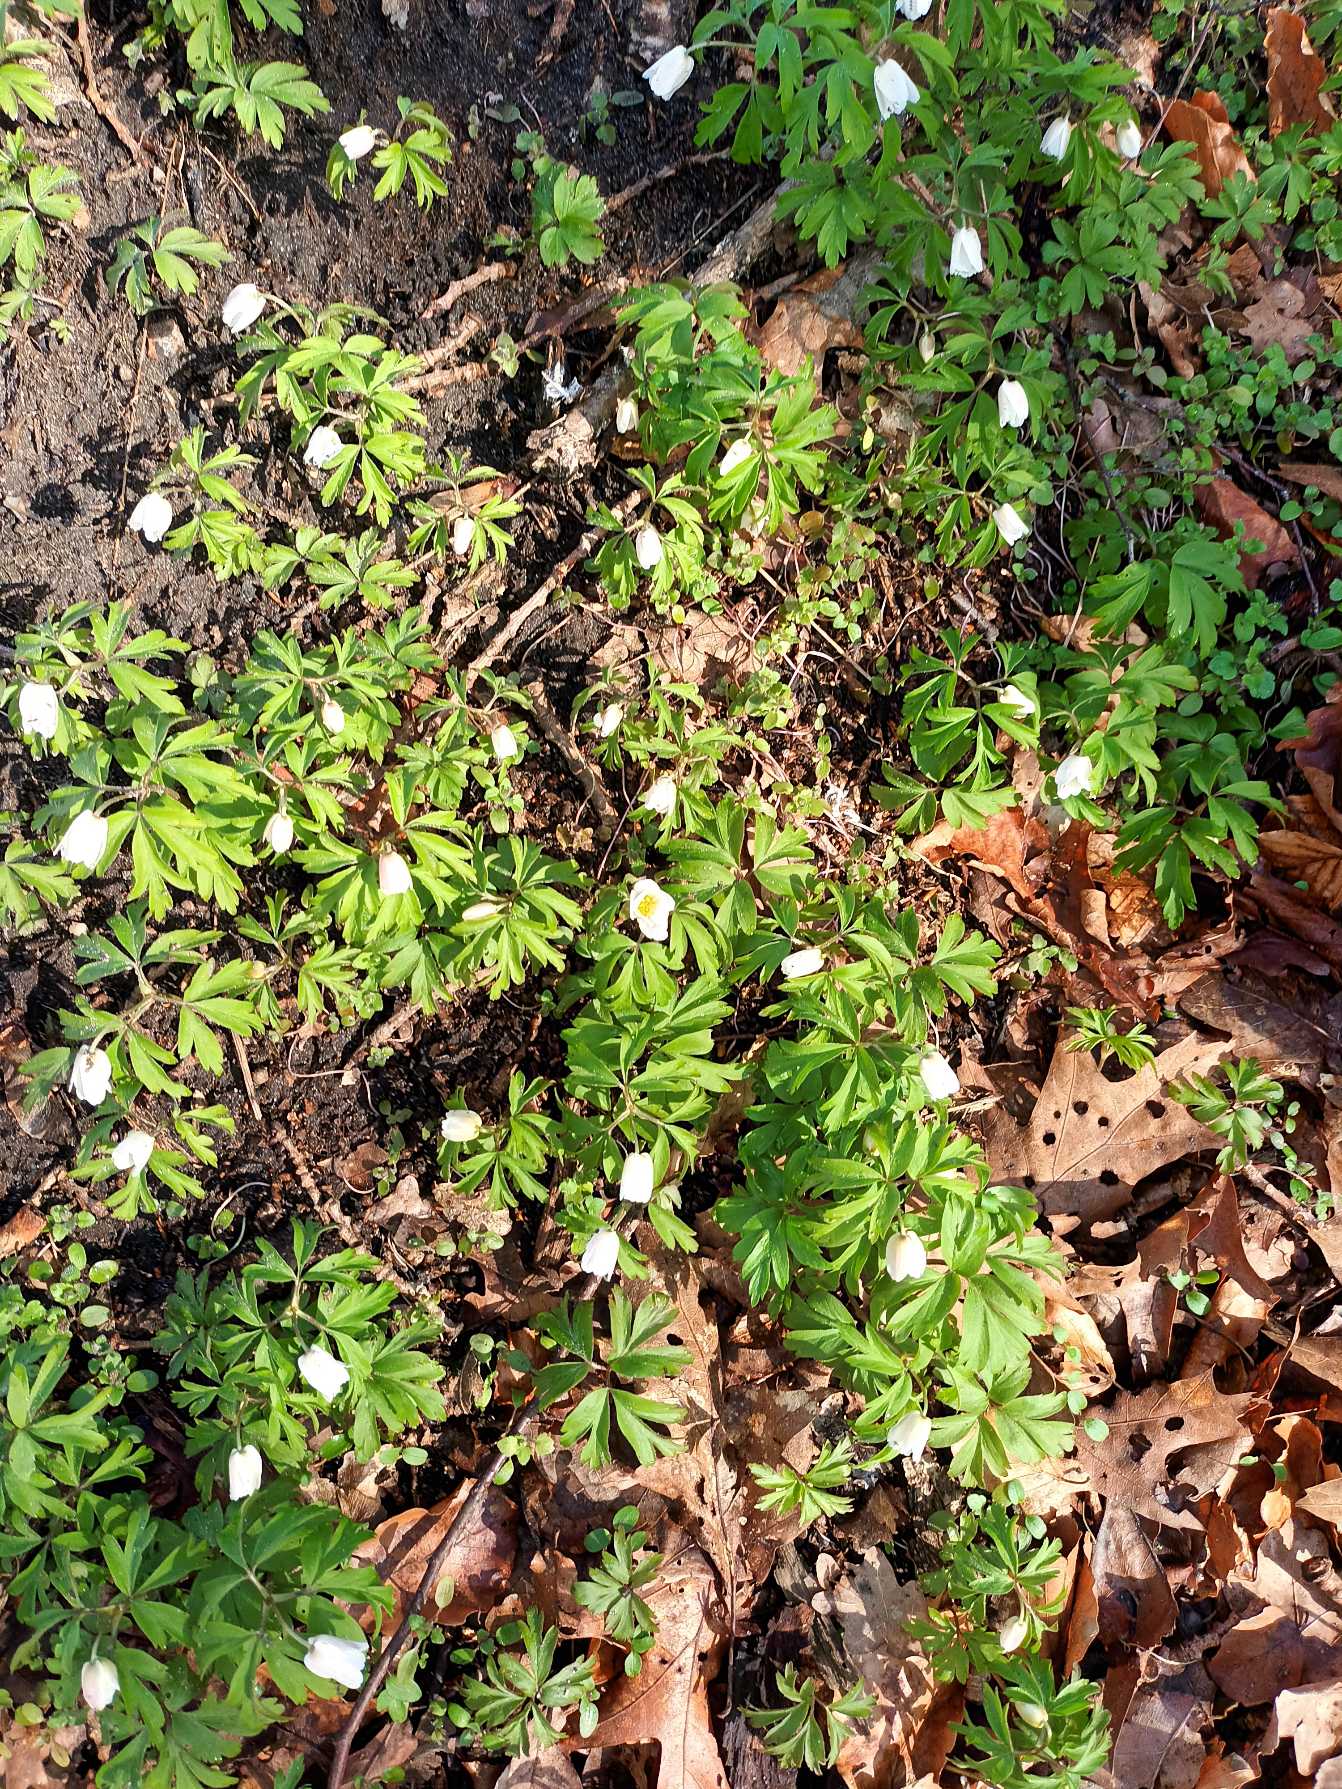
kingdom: Plantae
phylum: Tracheophyta
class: Magnoliopsida
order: Ranunculales
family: Ranunculaceae
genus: Anemone
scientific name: Anemone nemorosa
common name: Hvid anemone
